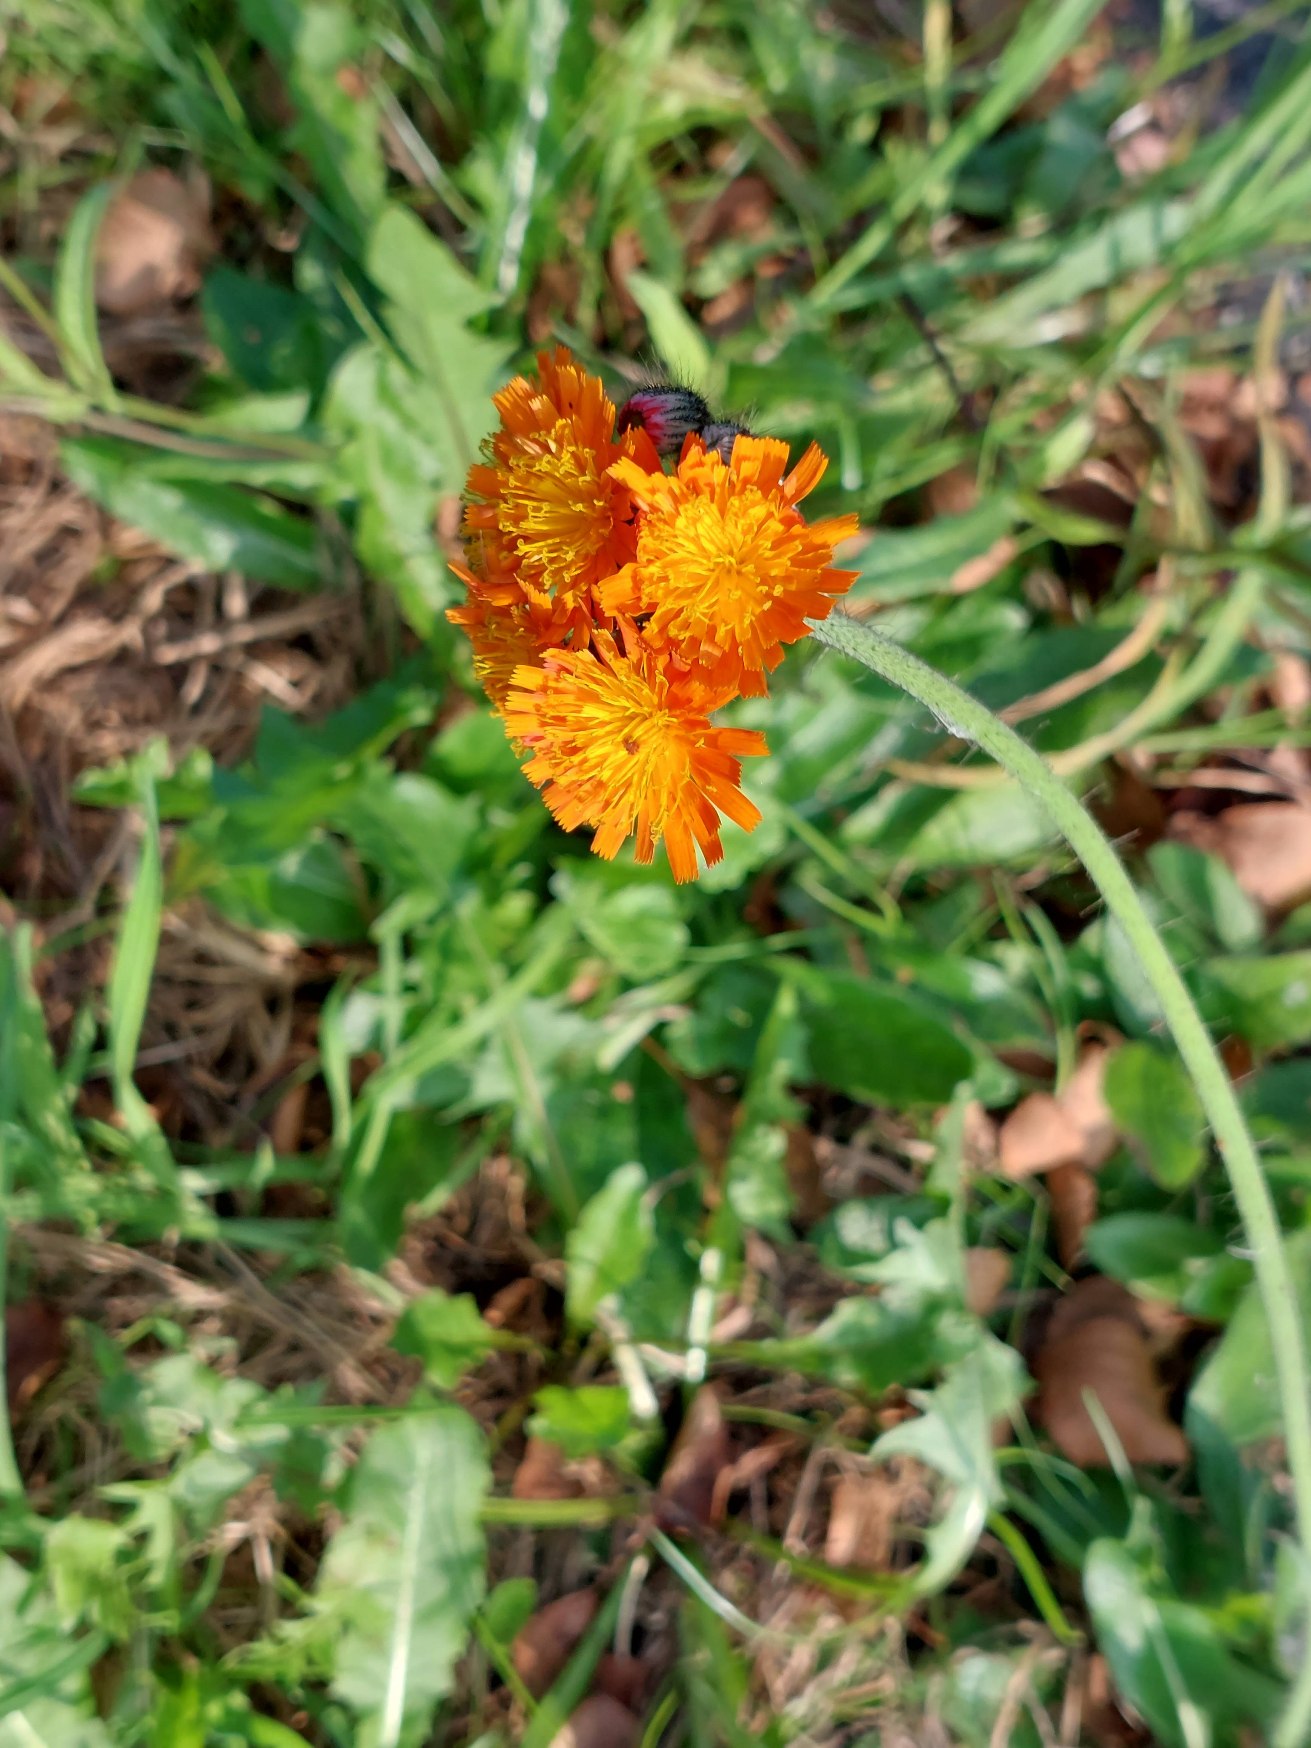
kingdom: Plantae
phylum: Tracheophyta
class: Magnoliopsida
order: Asterales
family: Asteraceae
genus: Pilosella
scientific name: Pilosella aurantiaca
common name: Pomerans-høgeurt
